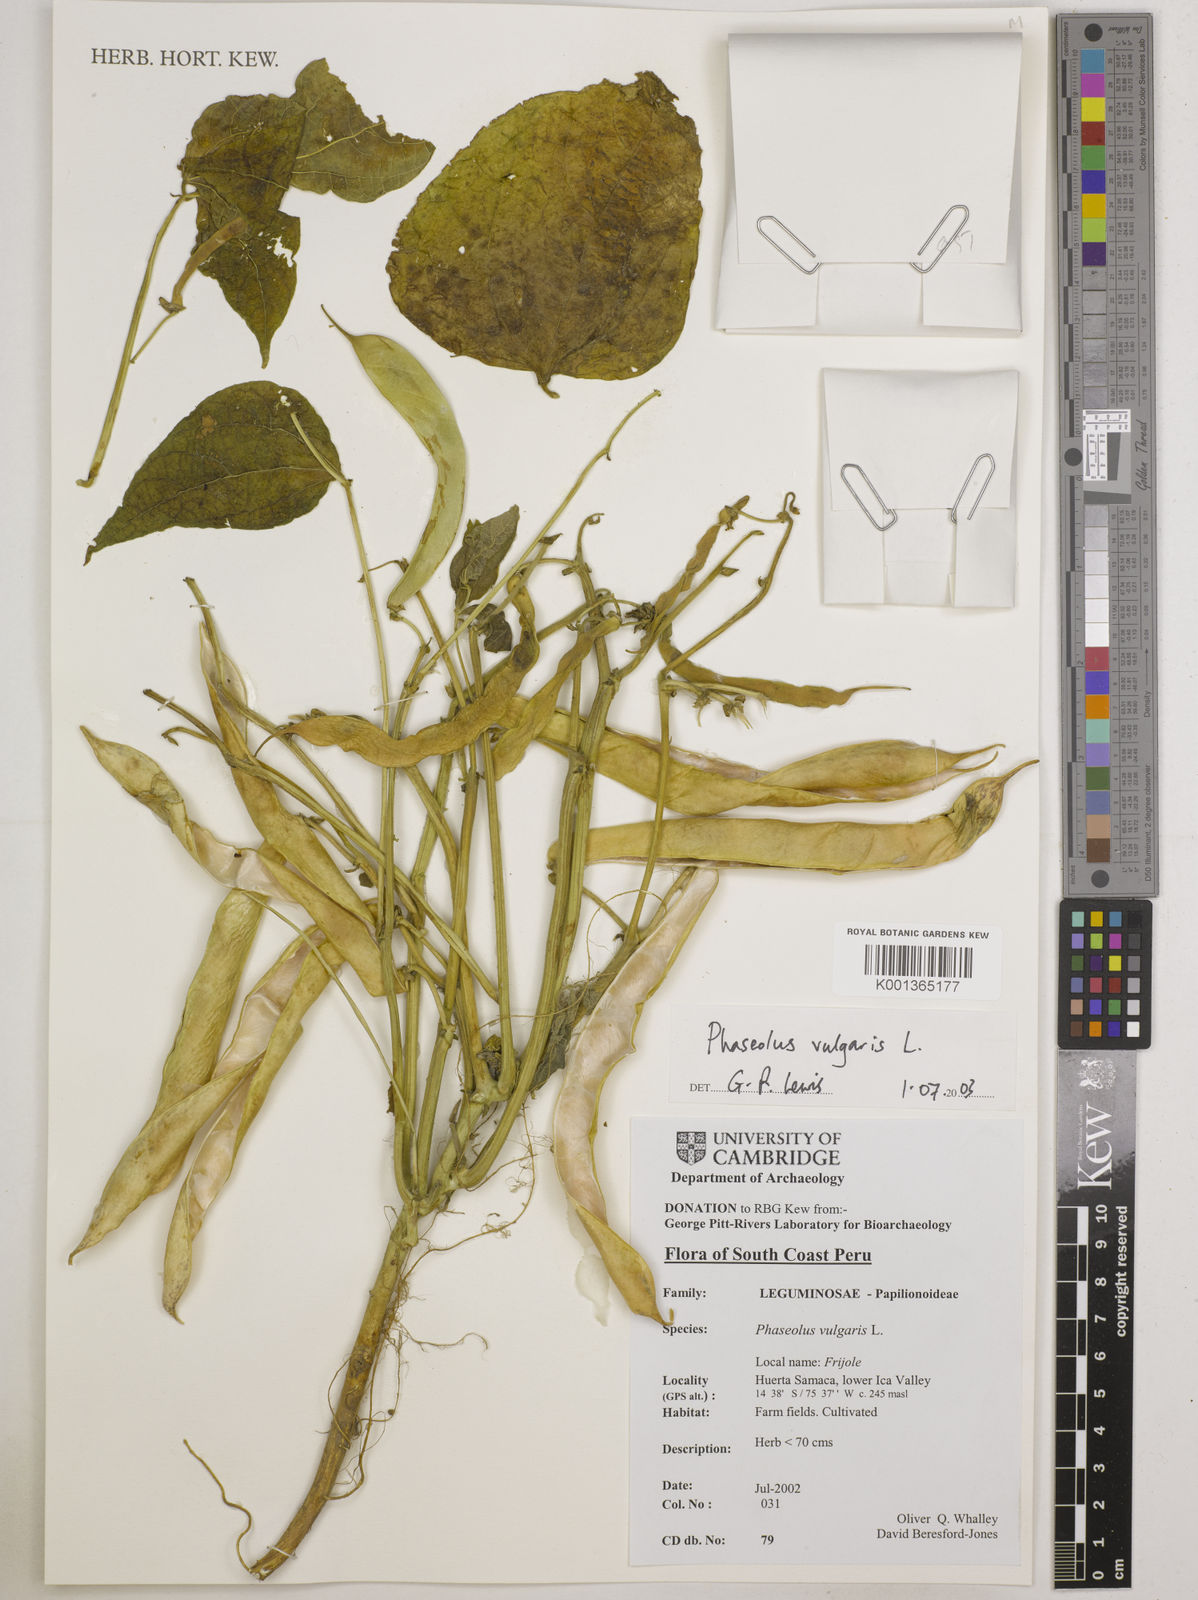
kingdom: Plantae
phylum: Tracheophyta
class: Magnoliopsida
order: Fabales
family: Fabaceae
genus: Phaseolus
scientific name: Phaseolus vulgaris
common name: Bean
